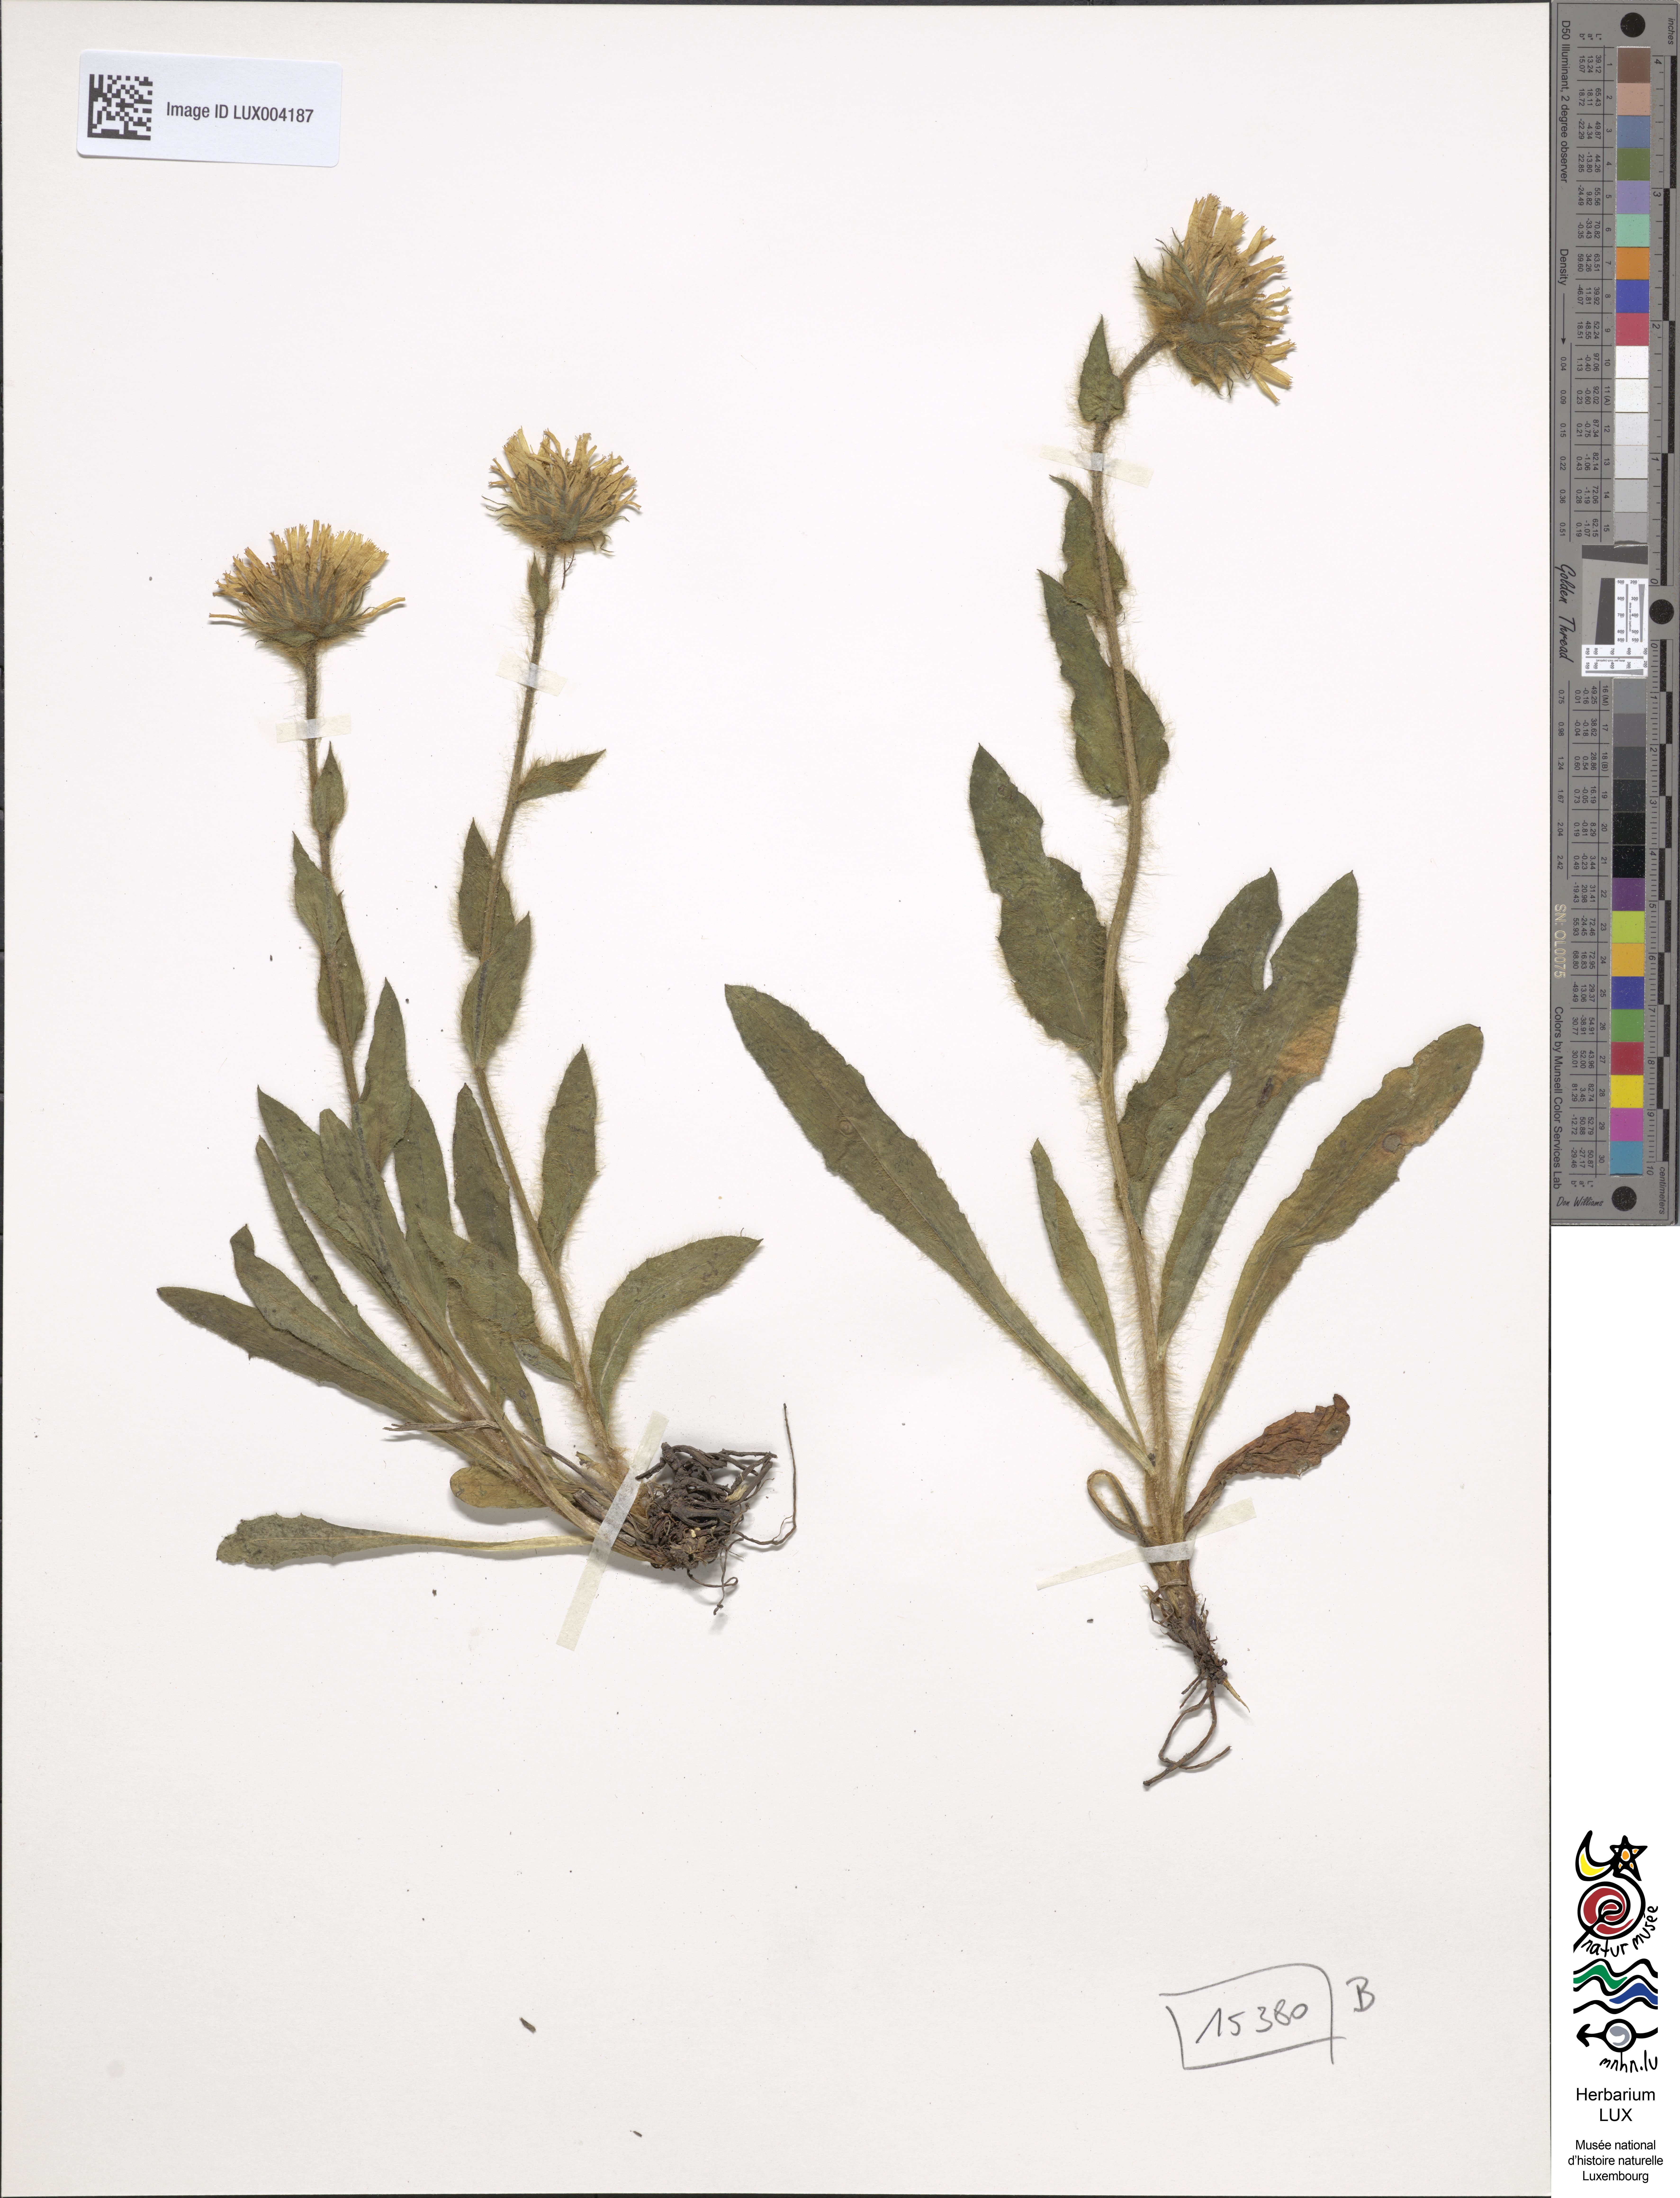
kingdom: Plantae
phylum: Tracheophyta
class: Magnoliopsida
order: Asterales
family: Asteraceae
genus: Hieracium
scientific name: Hieracium villosum
